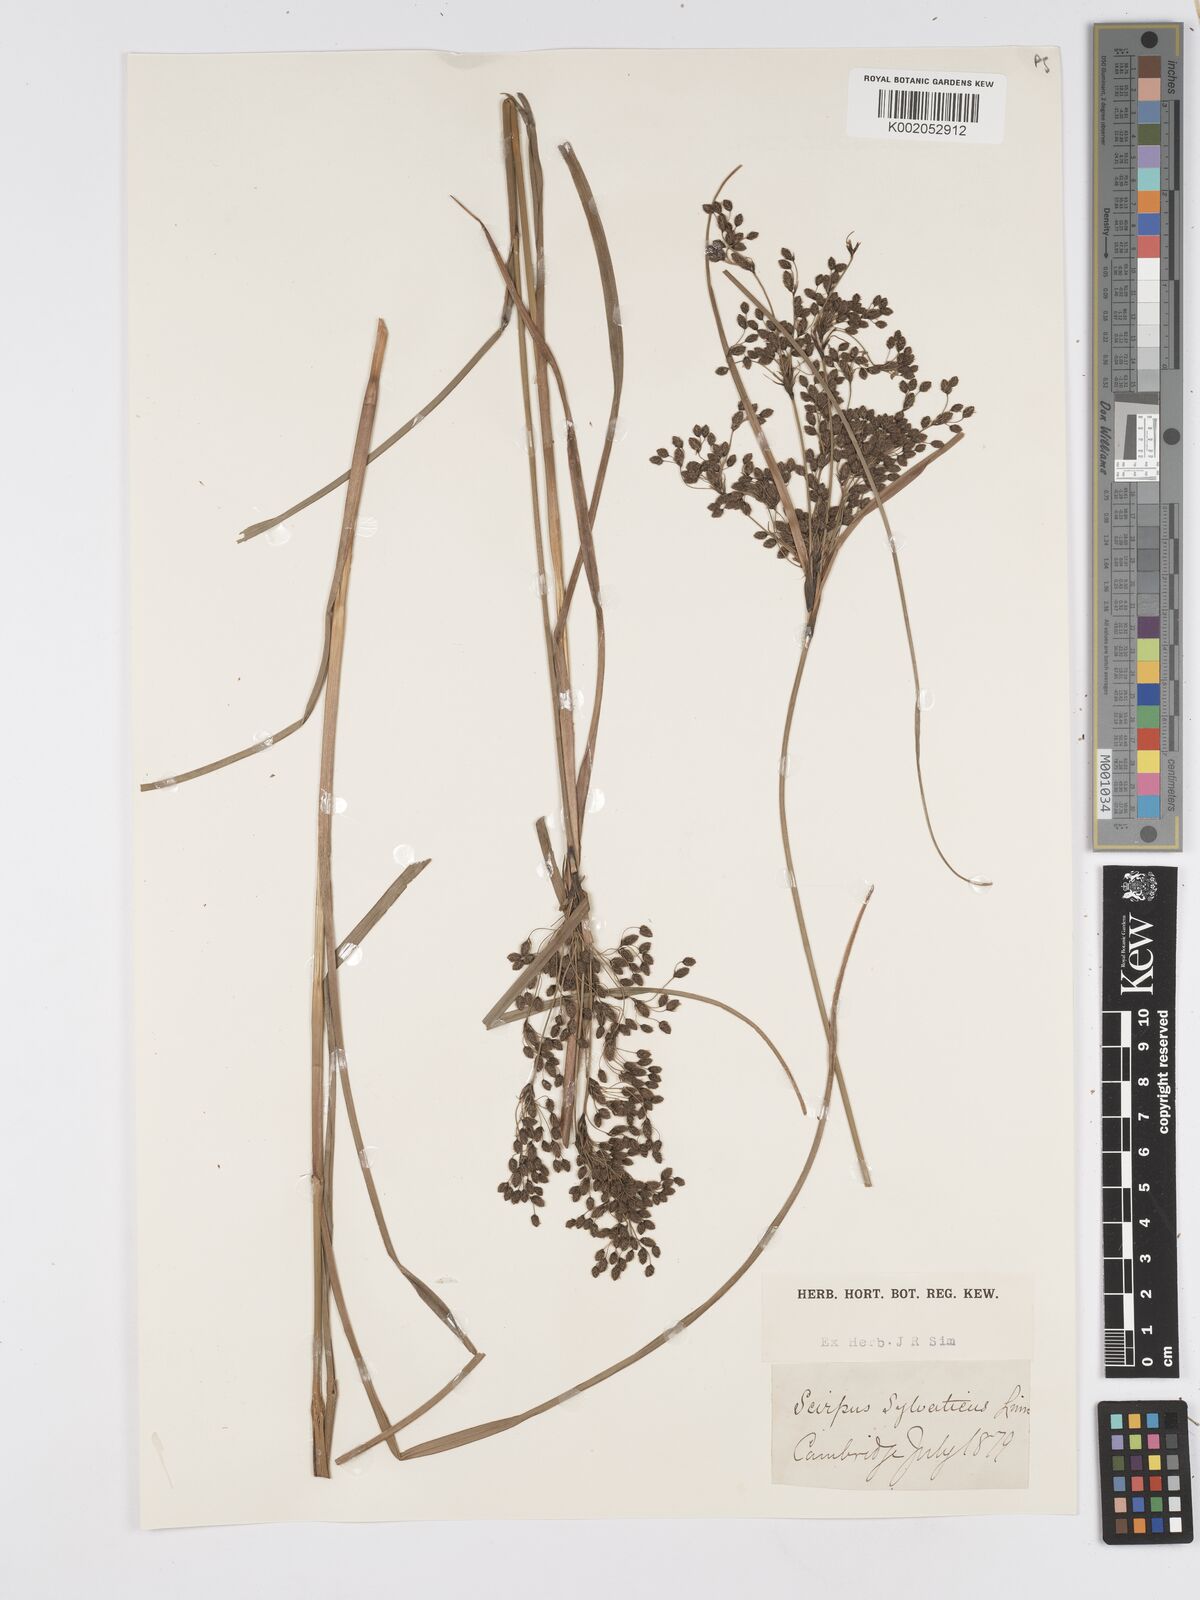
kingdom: Plantae
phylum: Tracheophyta
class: Liliopsida
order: Poales
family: Cyperaceae
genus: Scirpus
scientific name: Scirpus sylvaticus
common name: Wood club-rush
